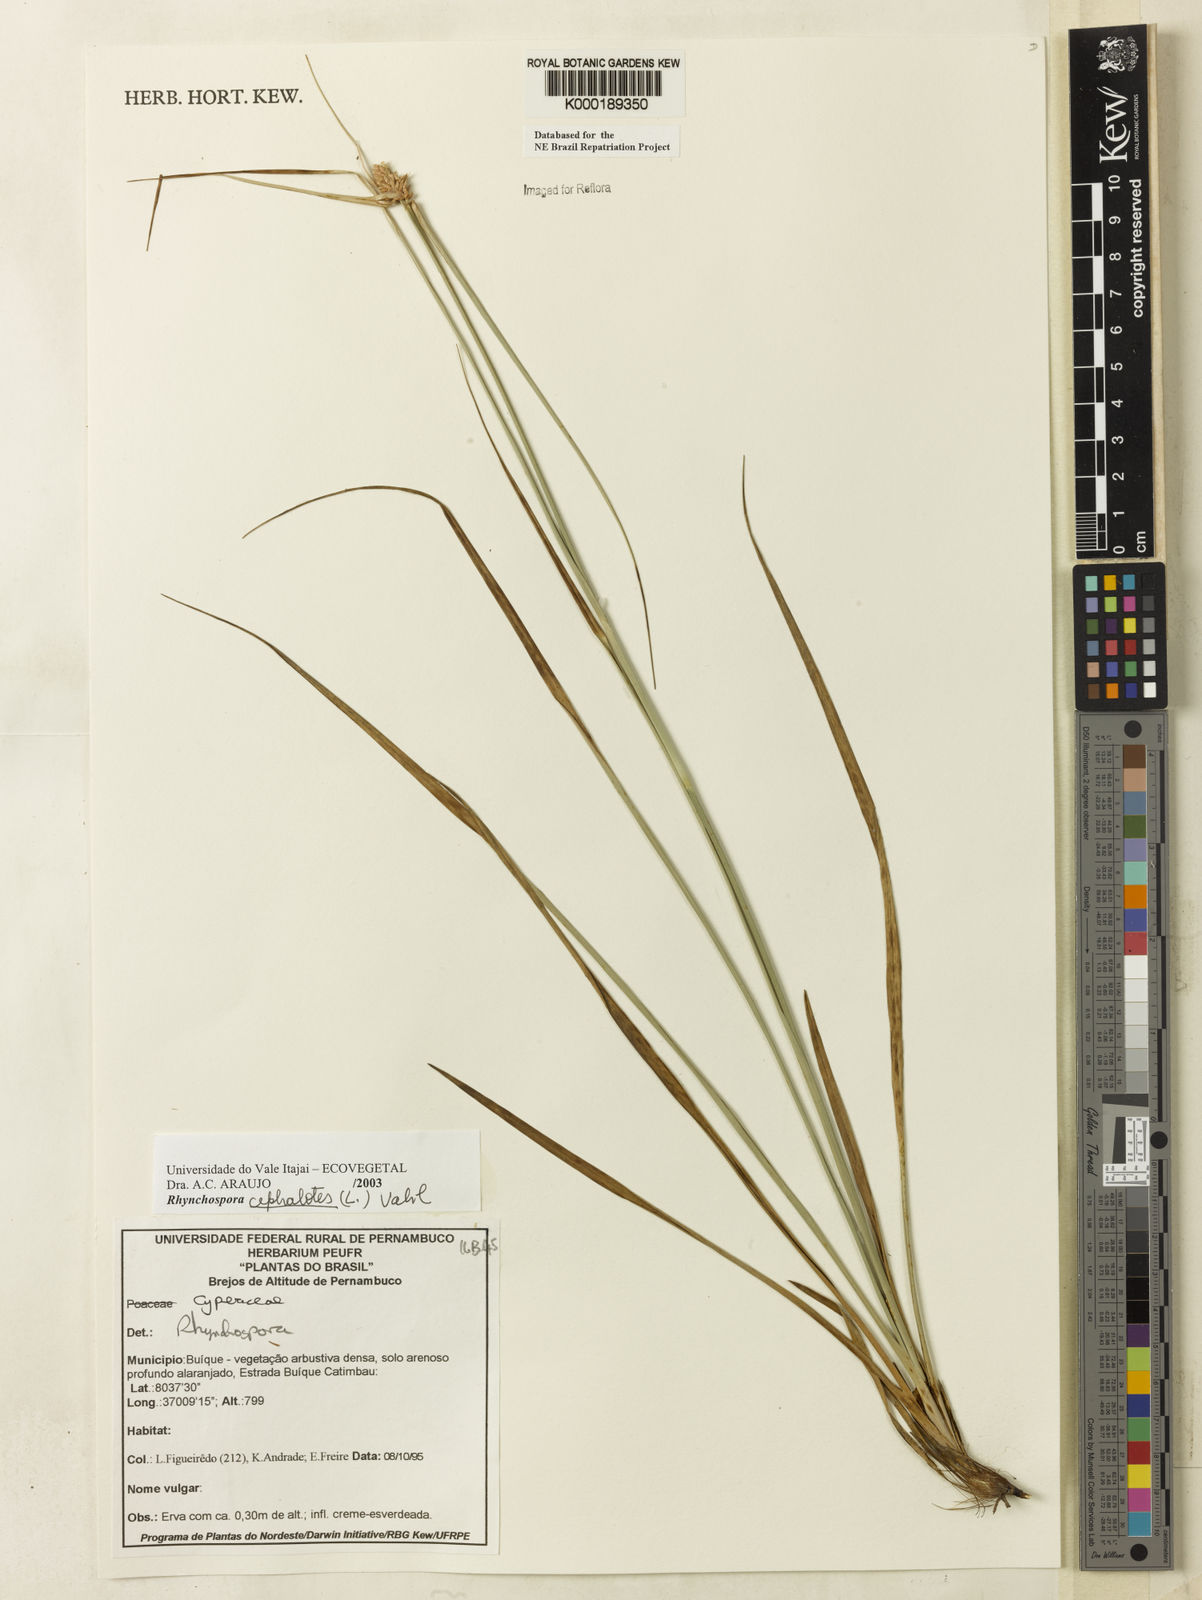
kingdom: Plantae
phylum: Tracheophyta
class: Liliopsida
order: Poales
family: Cyperaceae
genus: Rhynchospora
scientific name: Rhynchospora cephalotes
